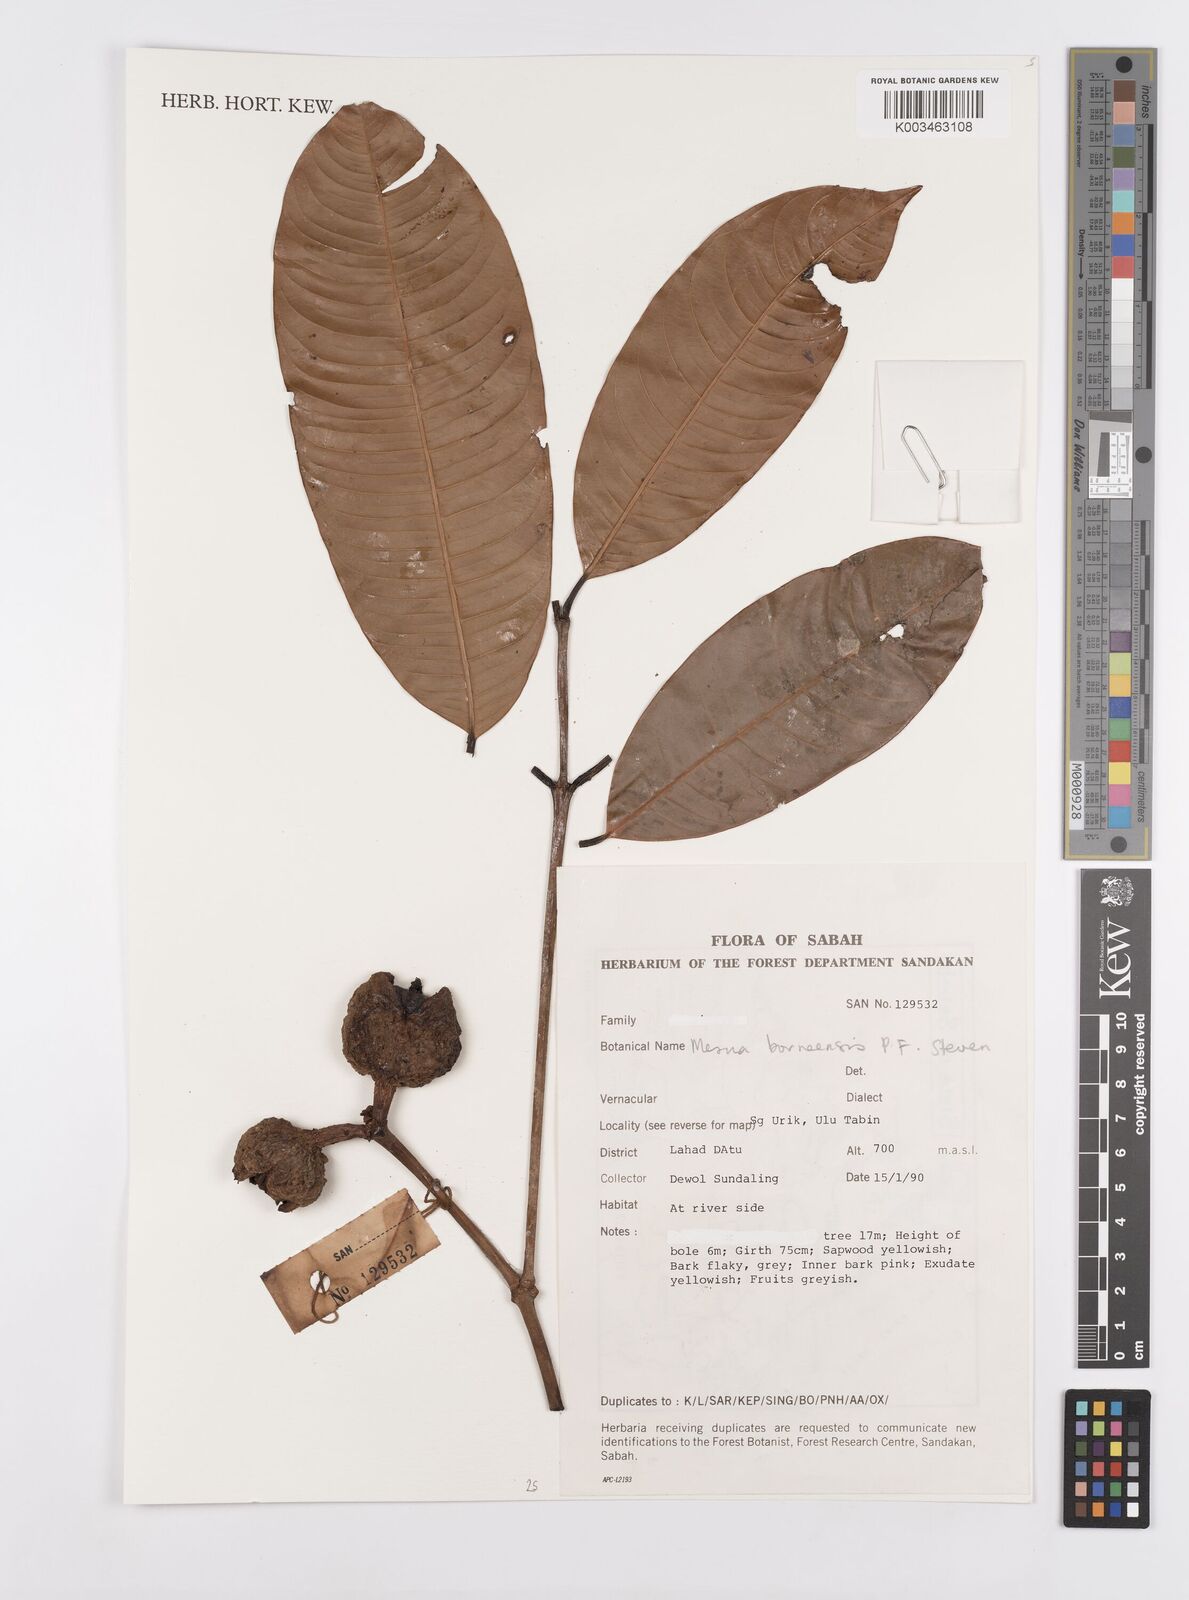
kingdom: Plantae
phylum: Tracheophyta
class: Magnoliopsida
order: Malpighiales
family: Calophyllaceae
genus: Kayea
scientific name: Kayea borneensis
